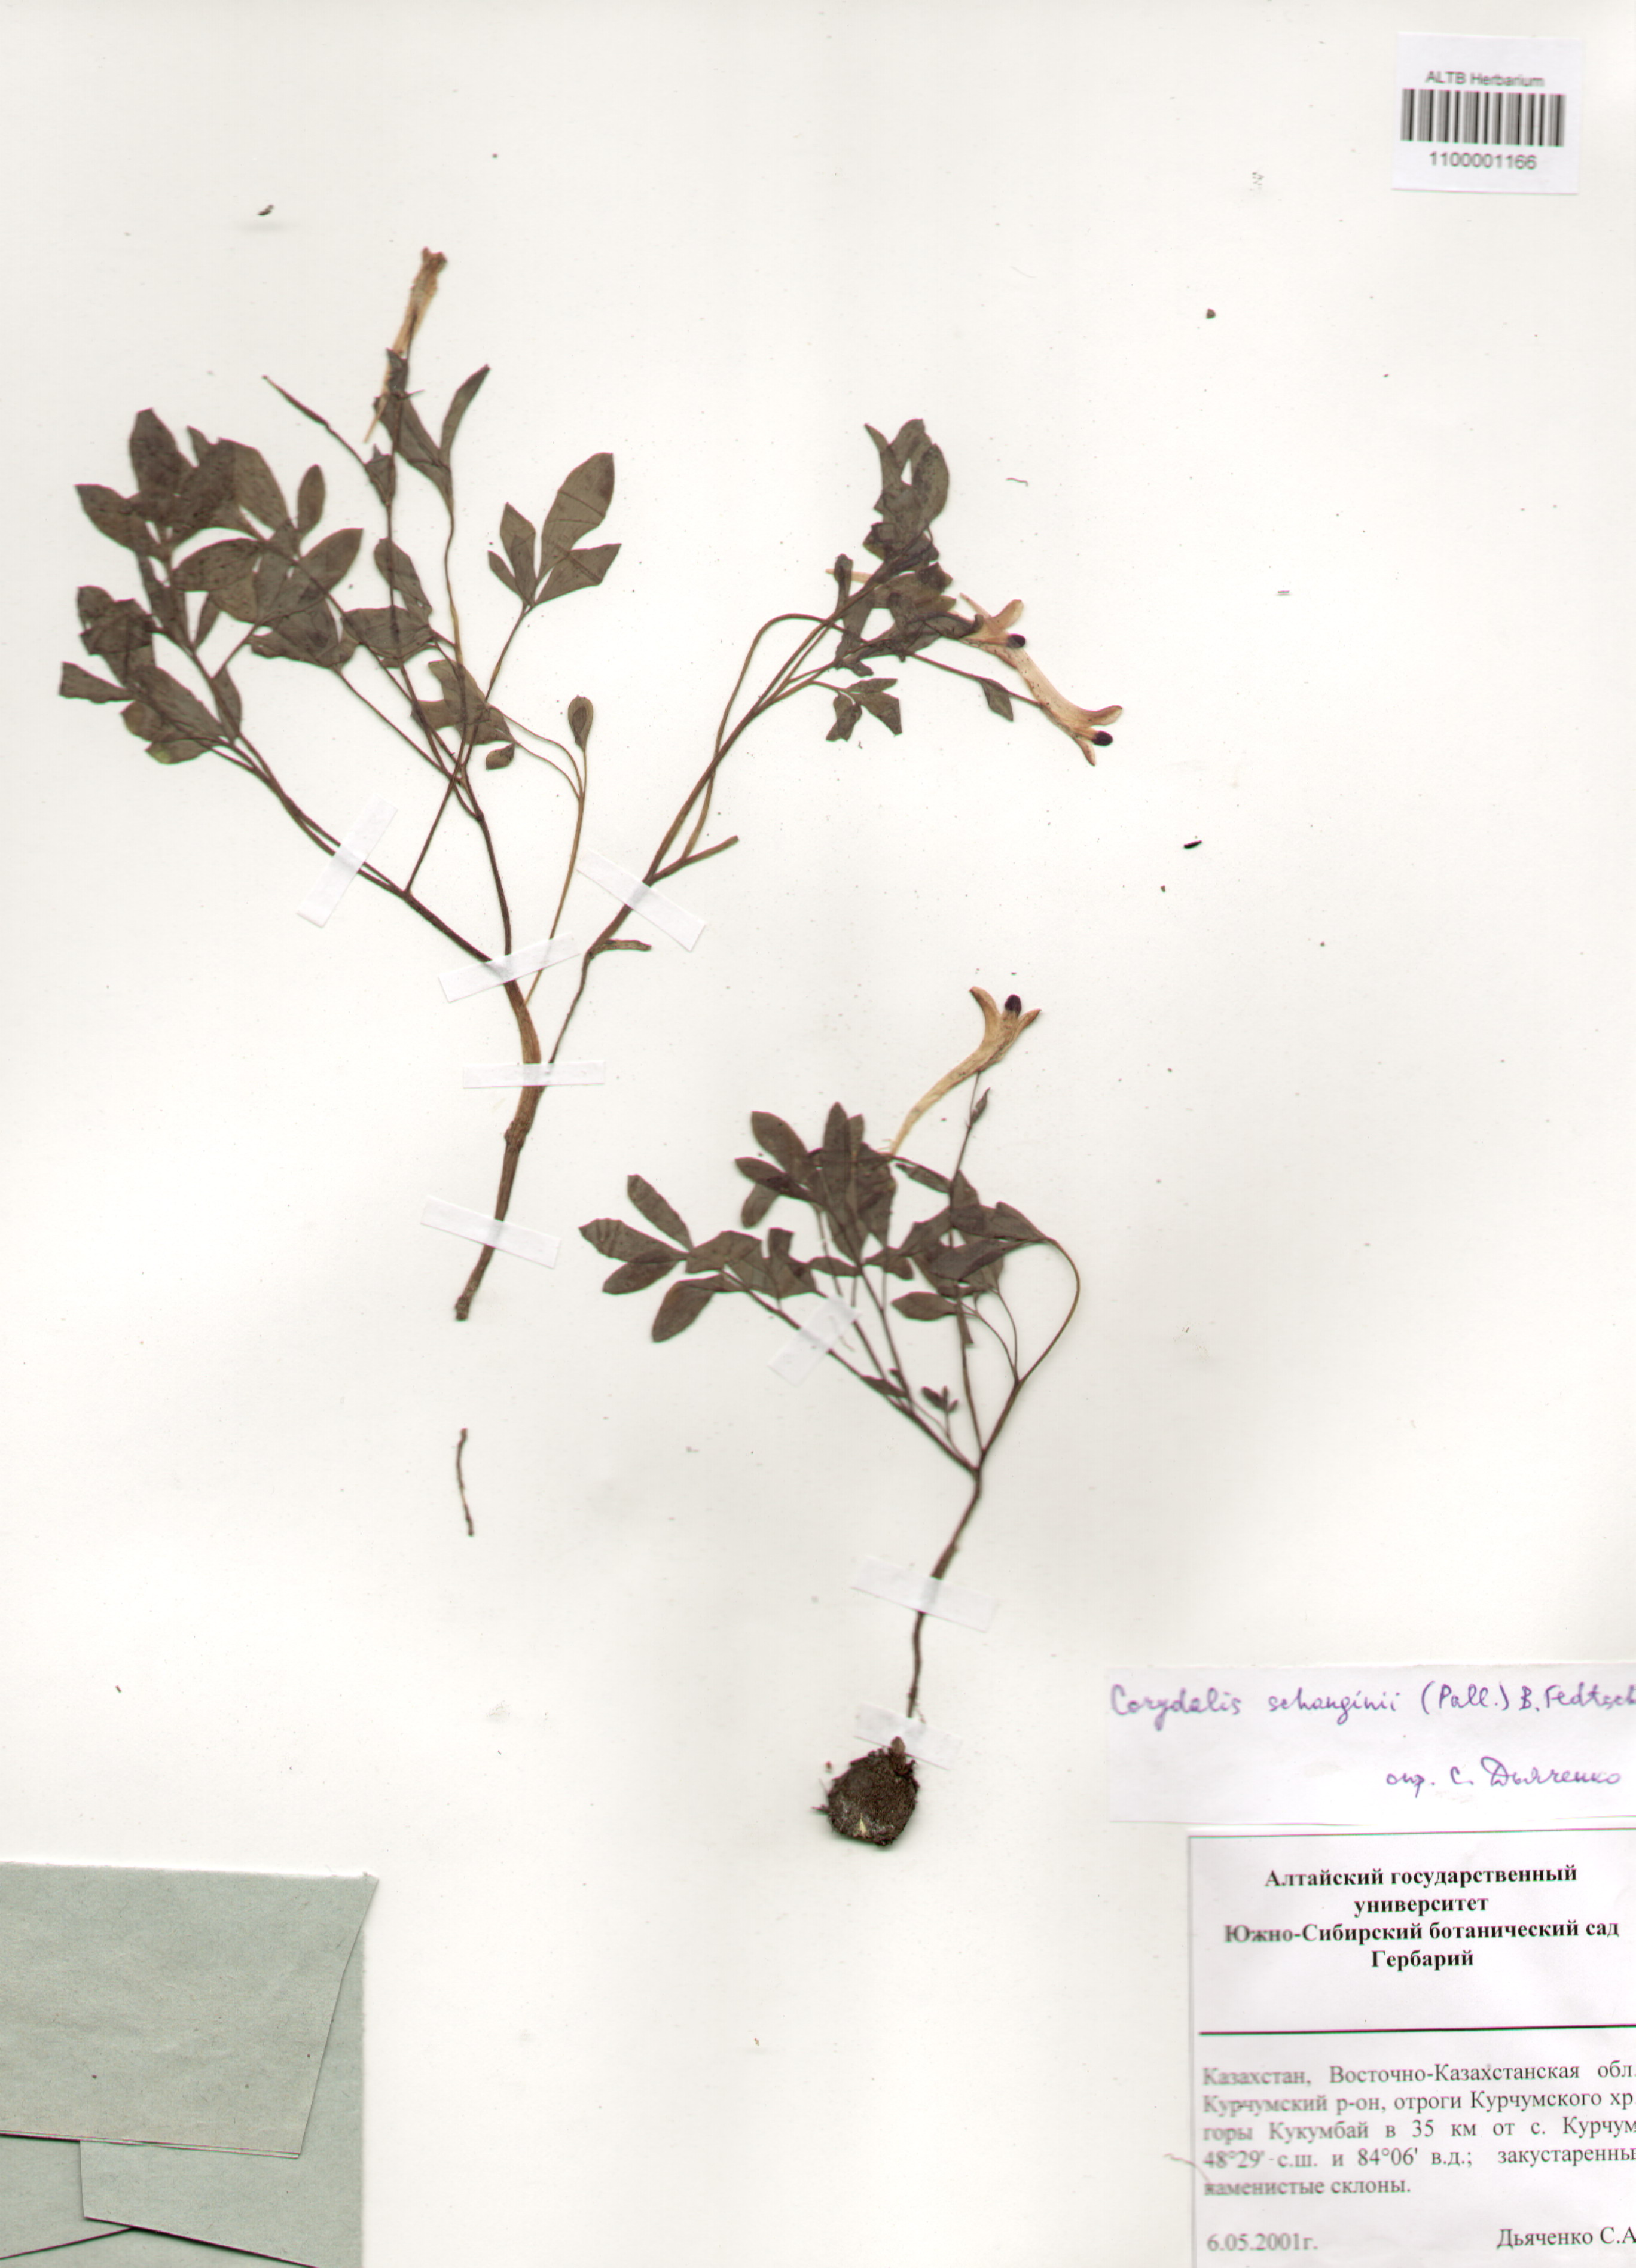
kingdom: Plantae
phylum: Tracheophyta
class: Magnoliopsida
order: Ranunculales
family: Papaveraceae
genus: Corydalis
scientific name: Corydalis schanginii
